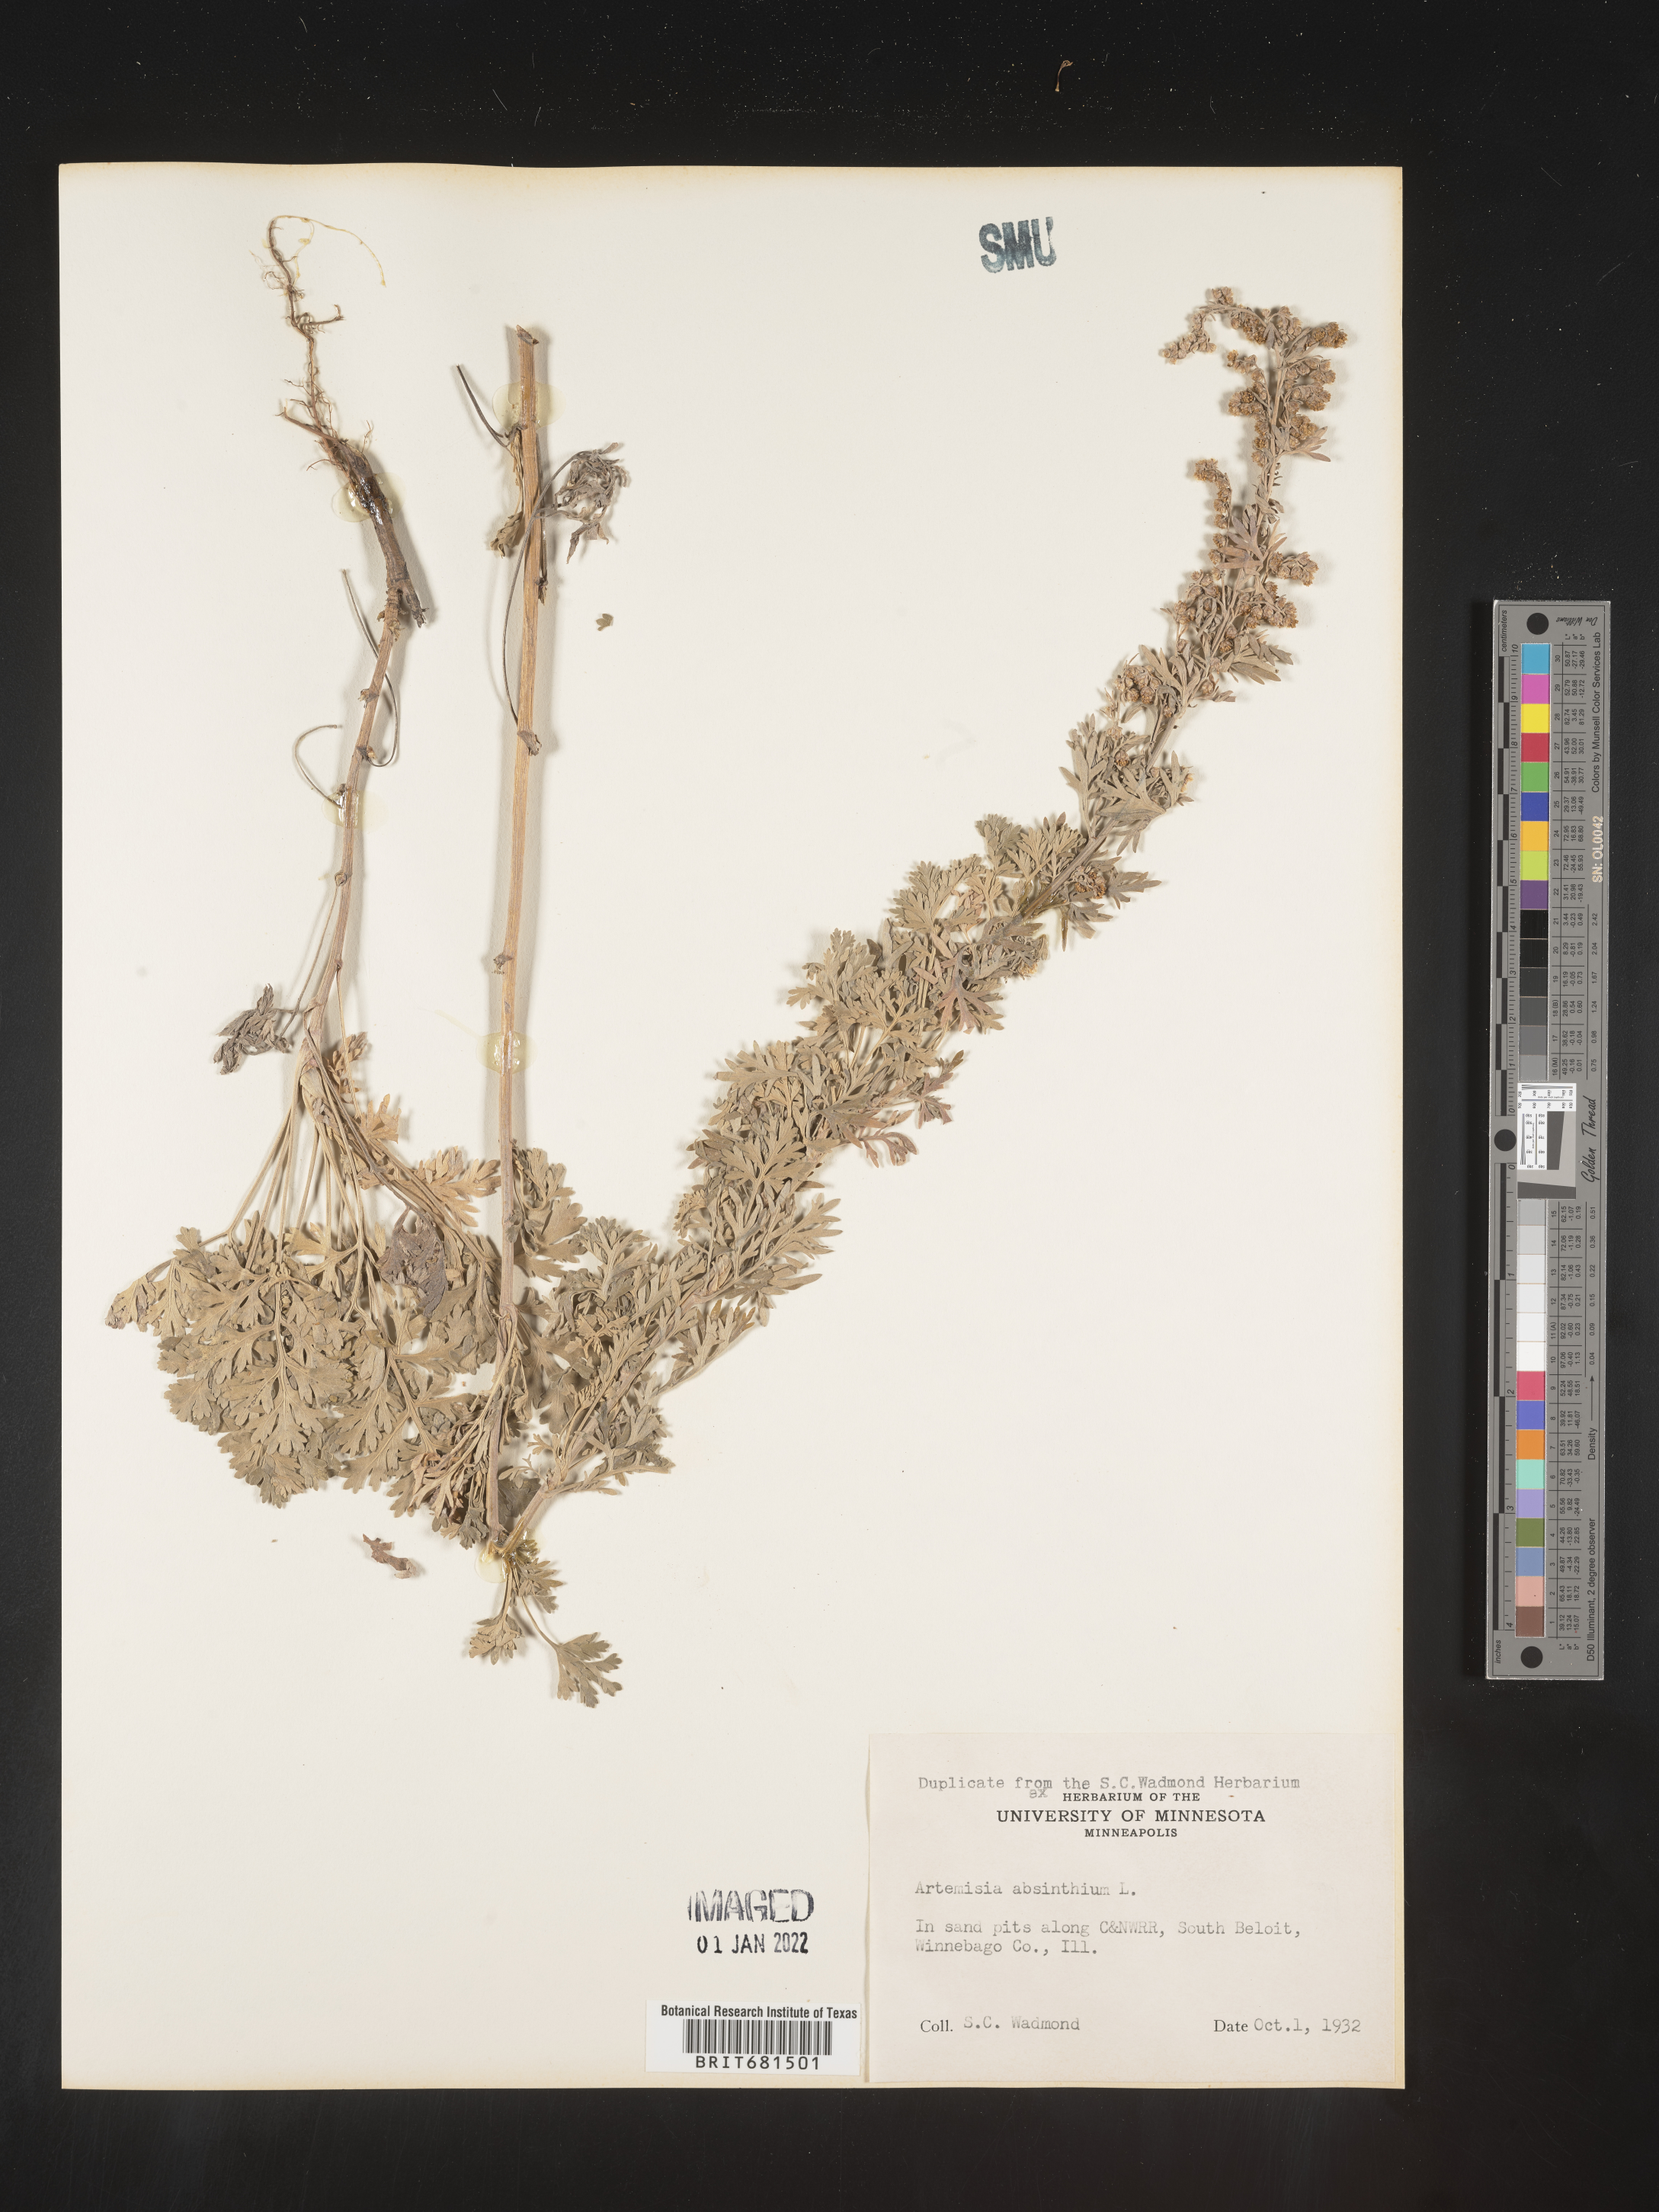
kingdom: Plantae
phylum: Tracheophyta
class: Magnoliopsida
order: Asterales
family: Asteraceae
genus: Artemisia
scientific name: Artemisia absinthium
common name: Wormwood
